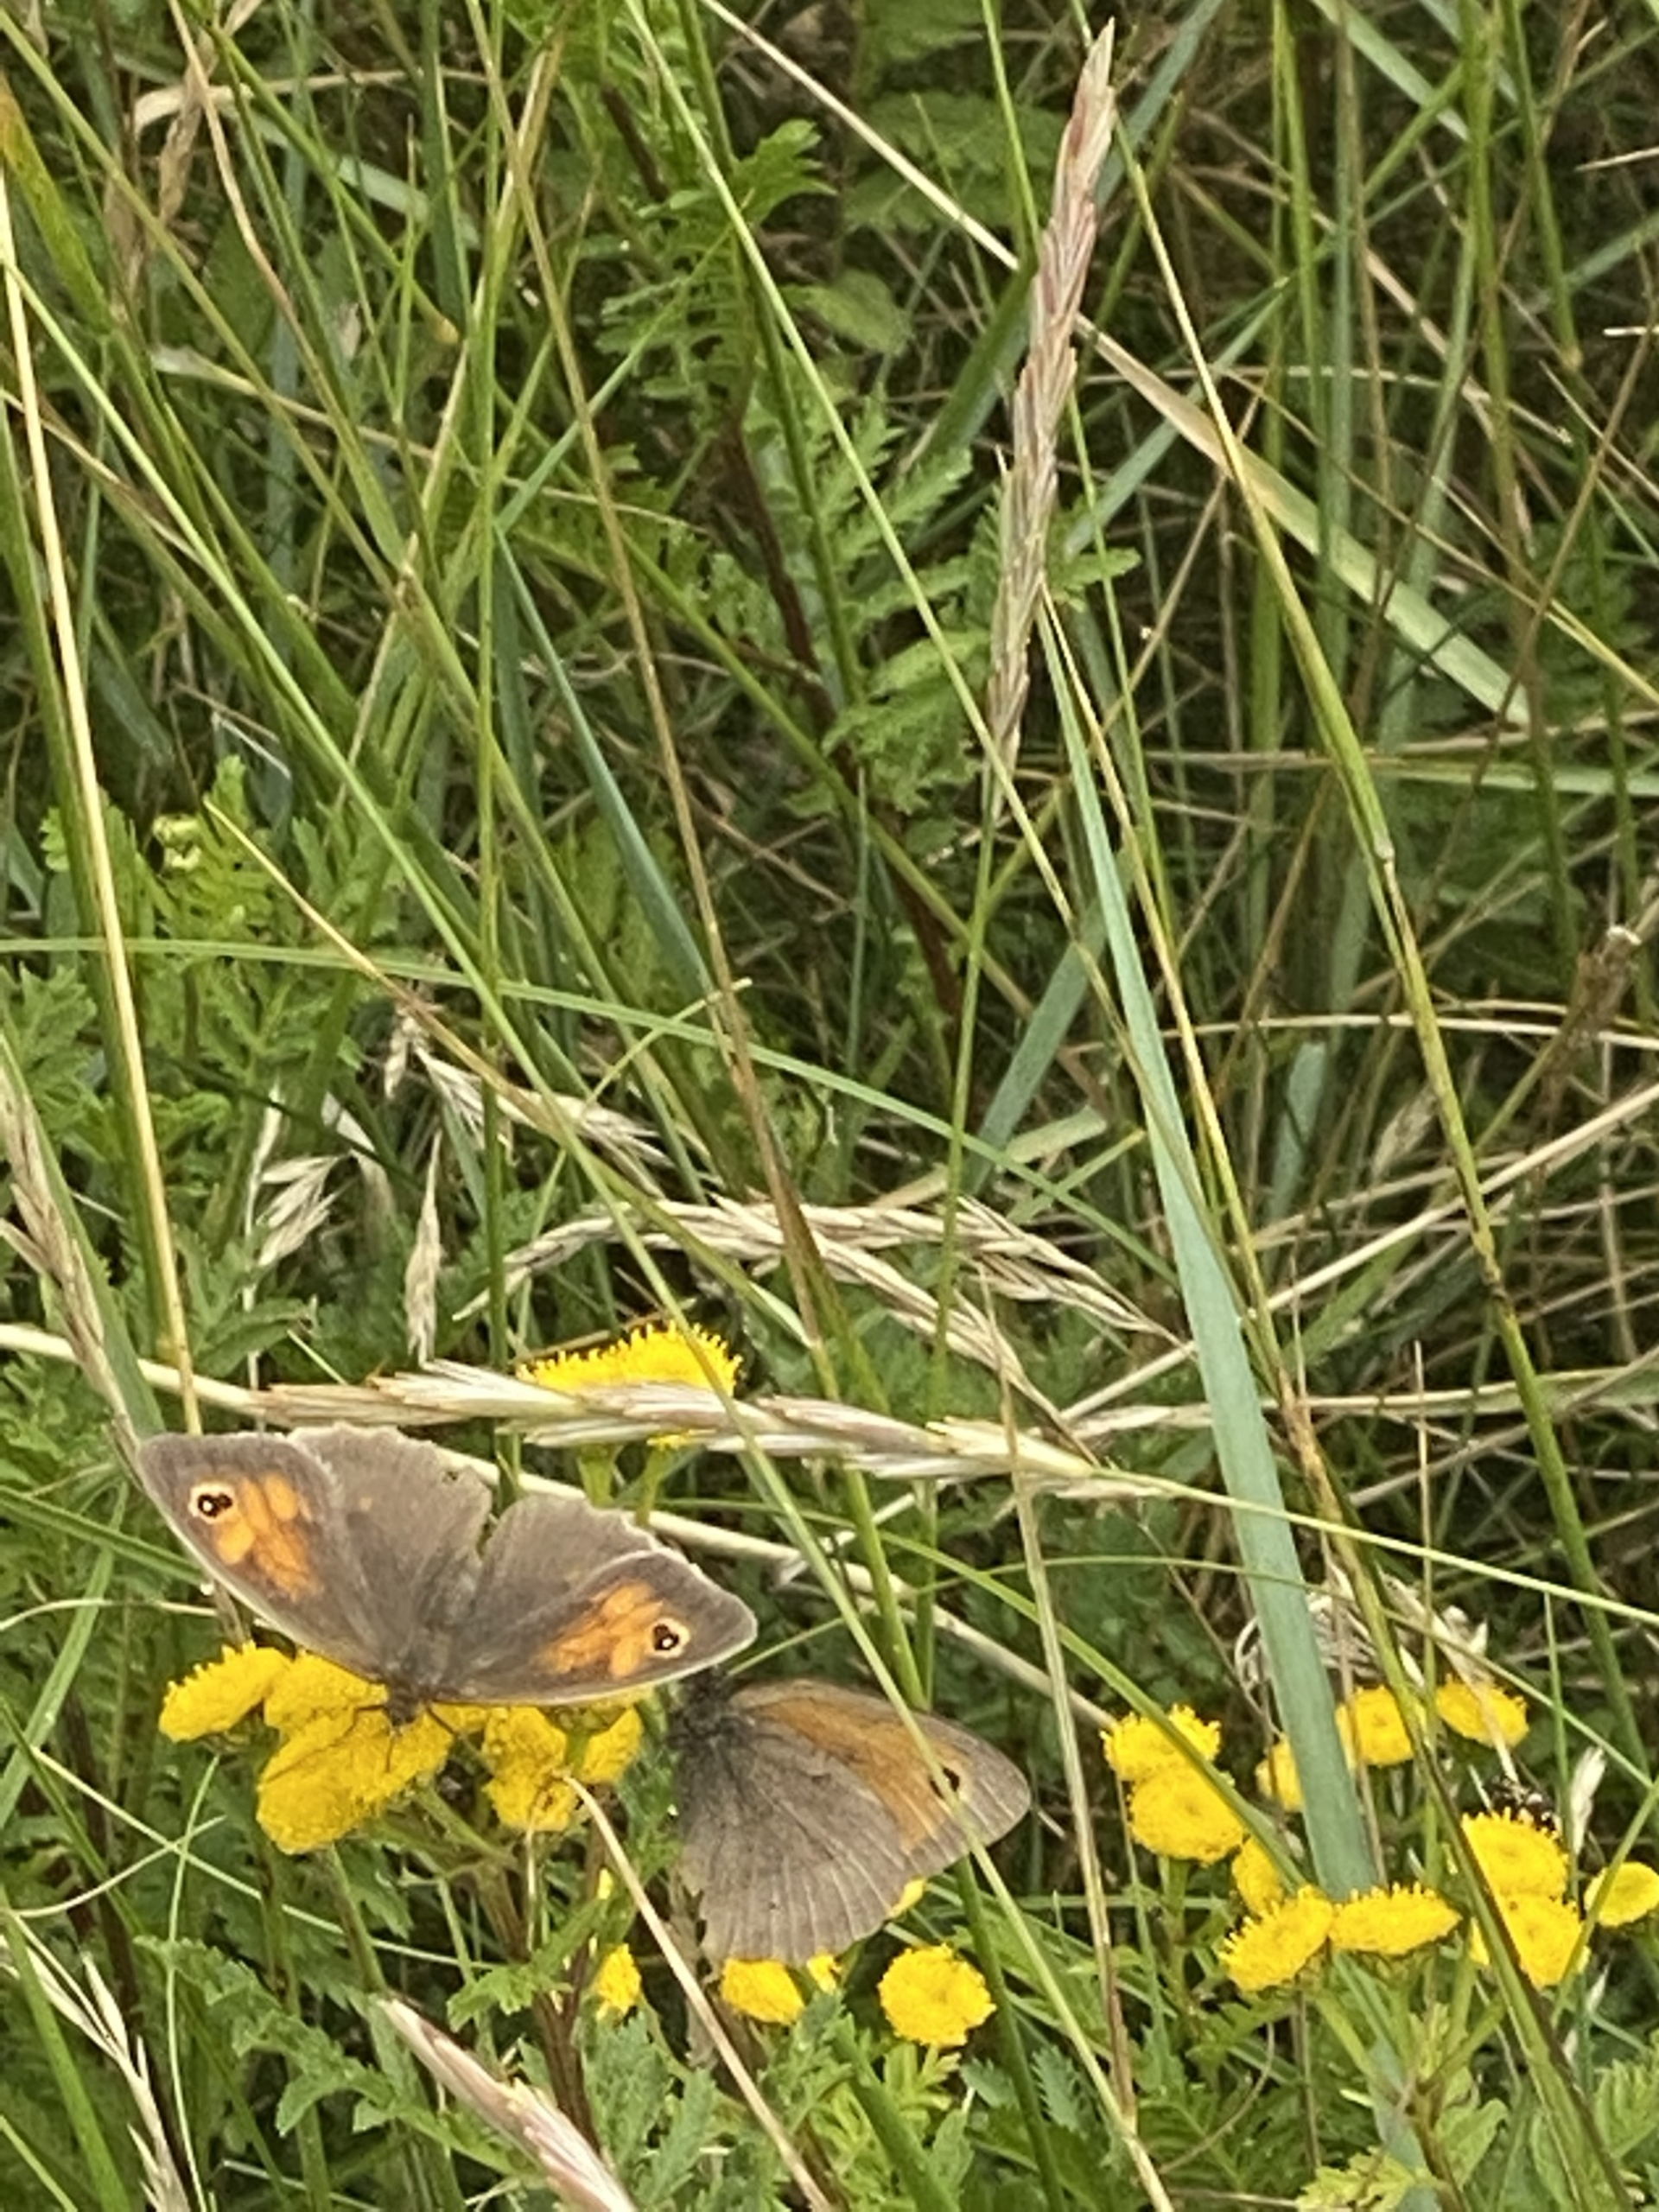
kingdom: Animalia
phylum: Arthropoda
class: Insecta
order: Lepidoptera
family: Nymphalidae
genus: Maniola
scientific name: Maniola jurtina
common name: Græsrandøje
